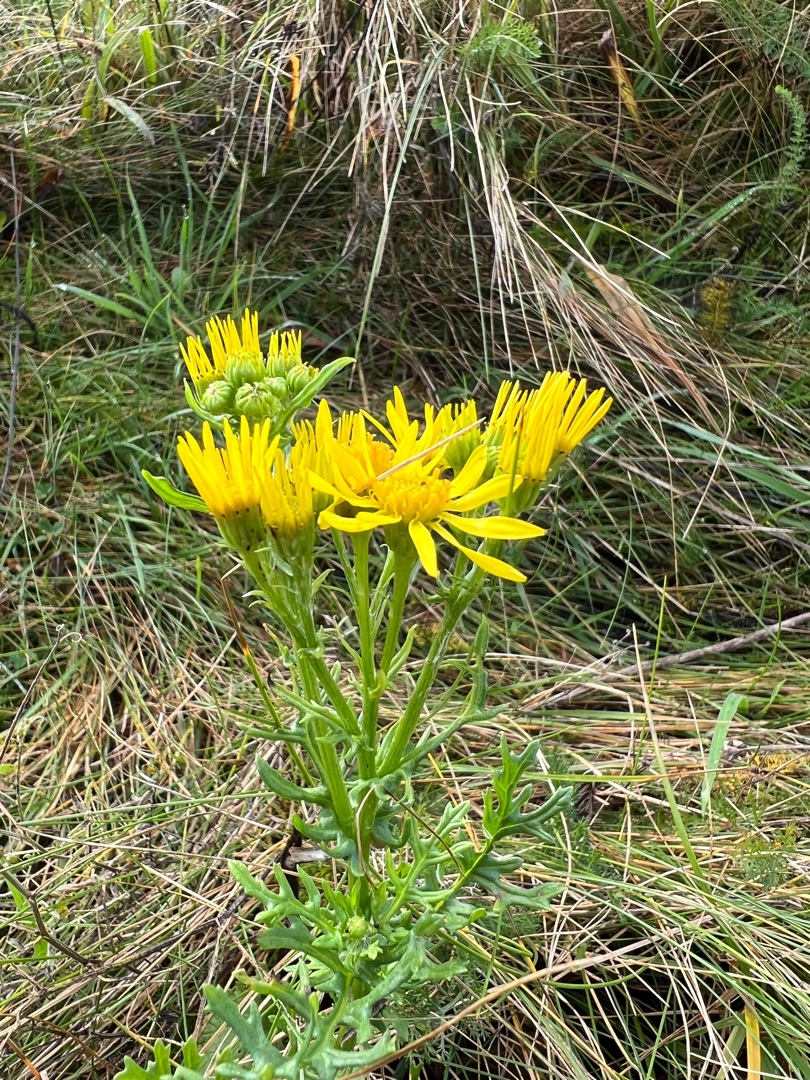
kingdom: Plantae
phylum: Tracheophyta
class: Magnoliopsida
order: Asterales
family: Asteraceae
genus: Jacobaea
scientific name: Jacobaea vulgaris
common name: Eng-brandbæger
